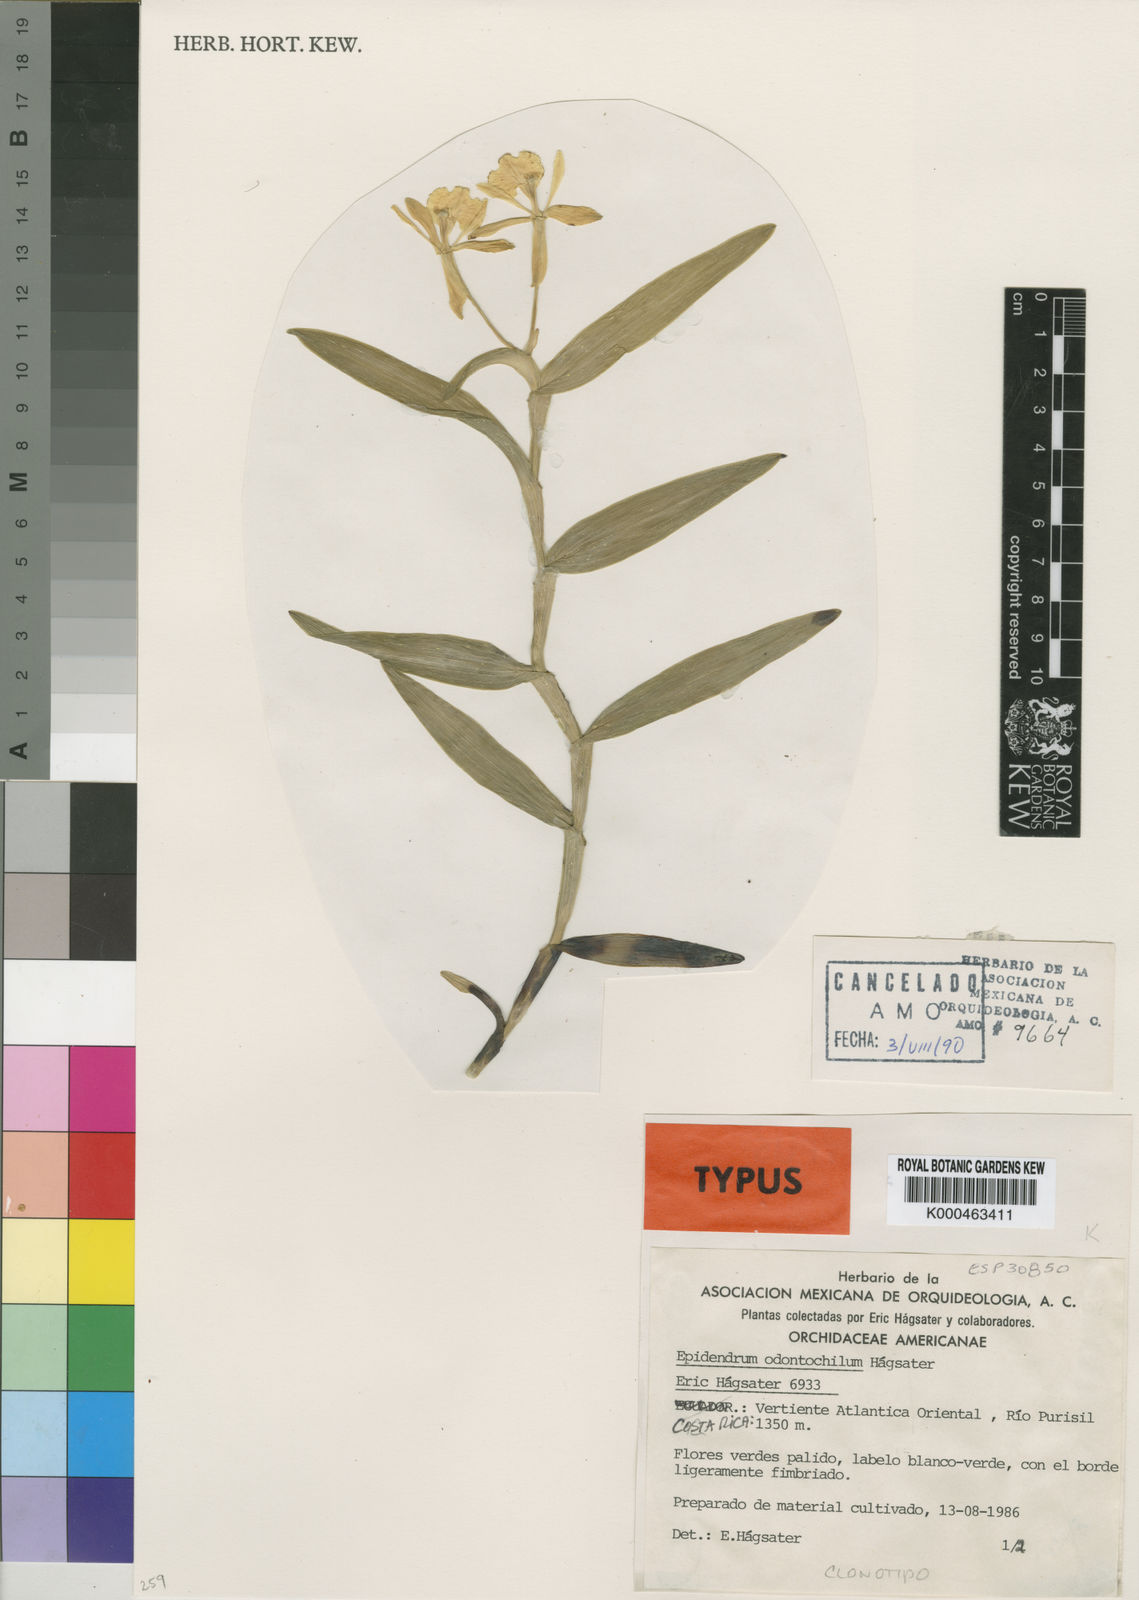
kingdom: Plantae
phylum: Tracheophyta
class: Liliopsida
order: Asparagales
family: Orchidaceae
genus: Epidendrum
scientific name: Epidendrum
